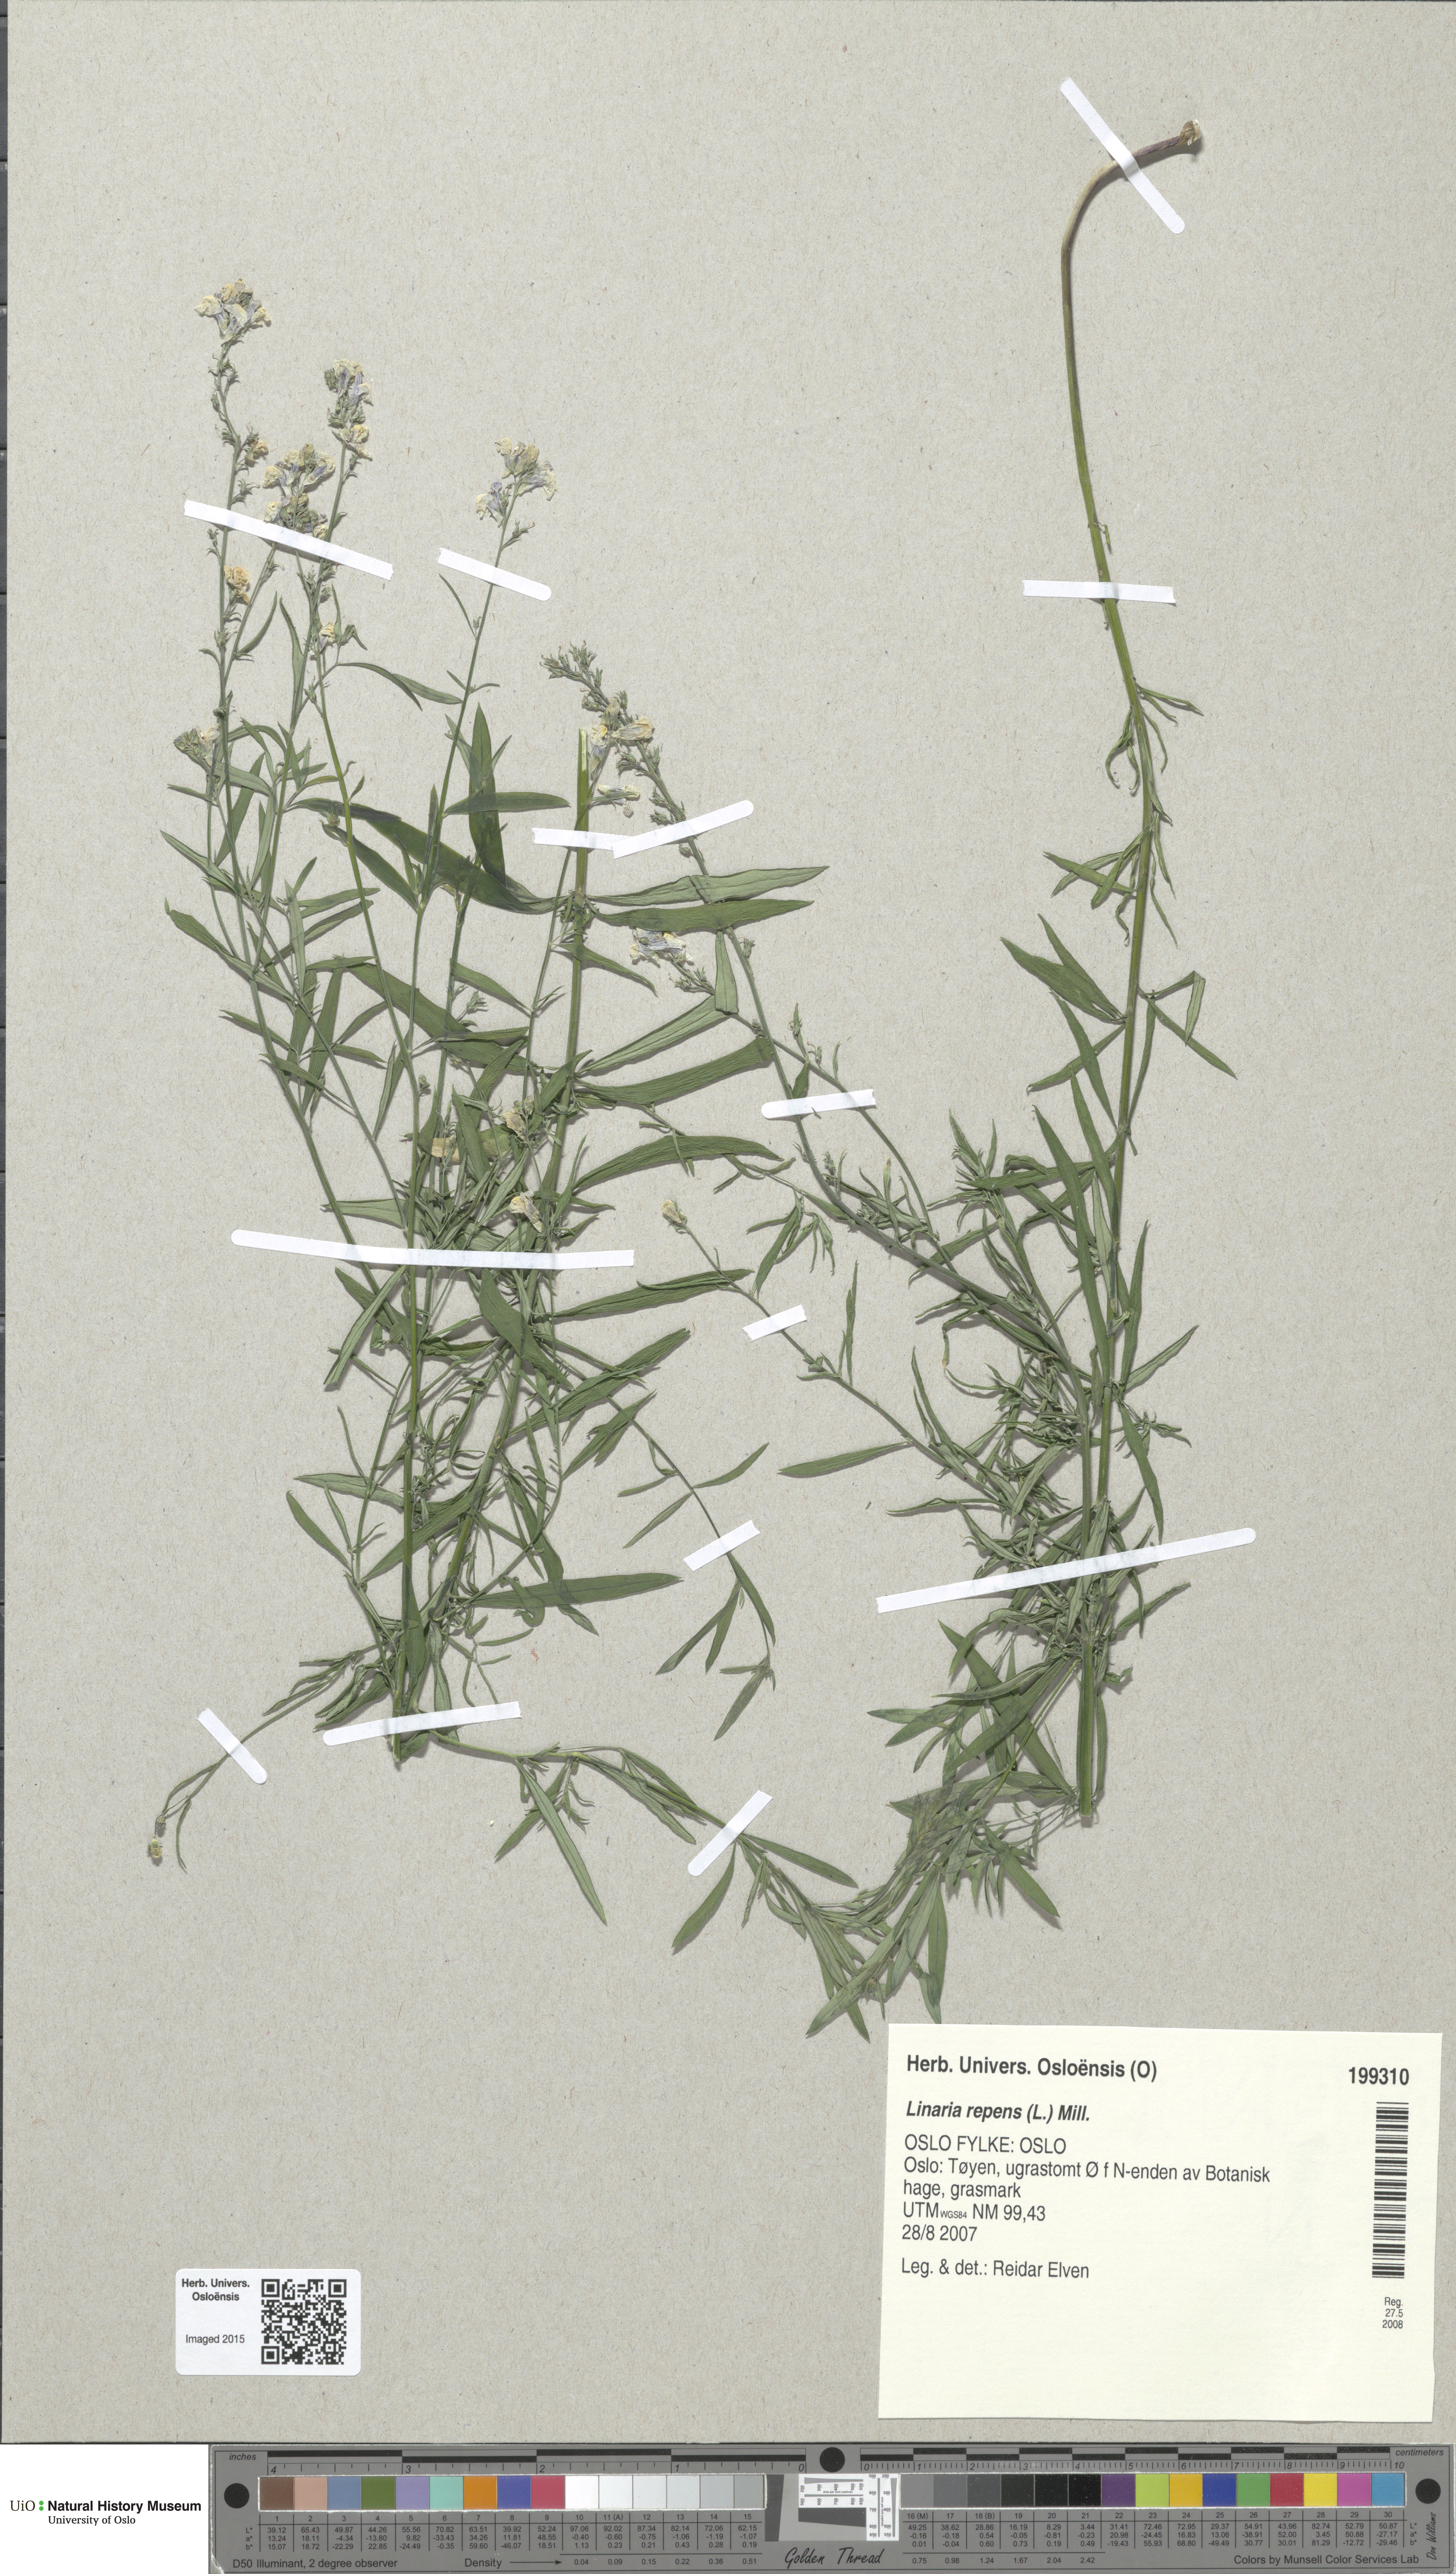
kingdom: Plantae
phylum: Tracheophyta
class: Magnoliopsida
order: Lamiales
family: Plantaginaceae
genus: Linaria
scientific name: Linaria repens
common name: Pale toadflax
